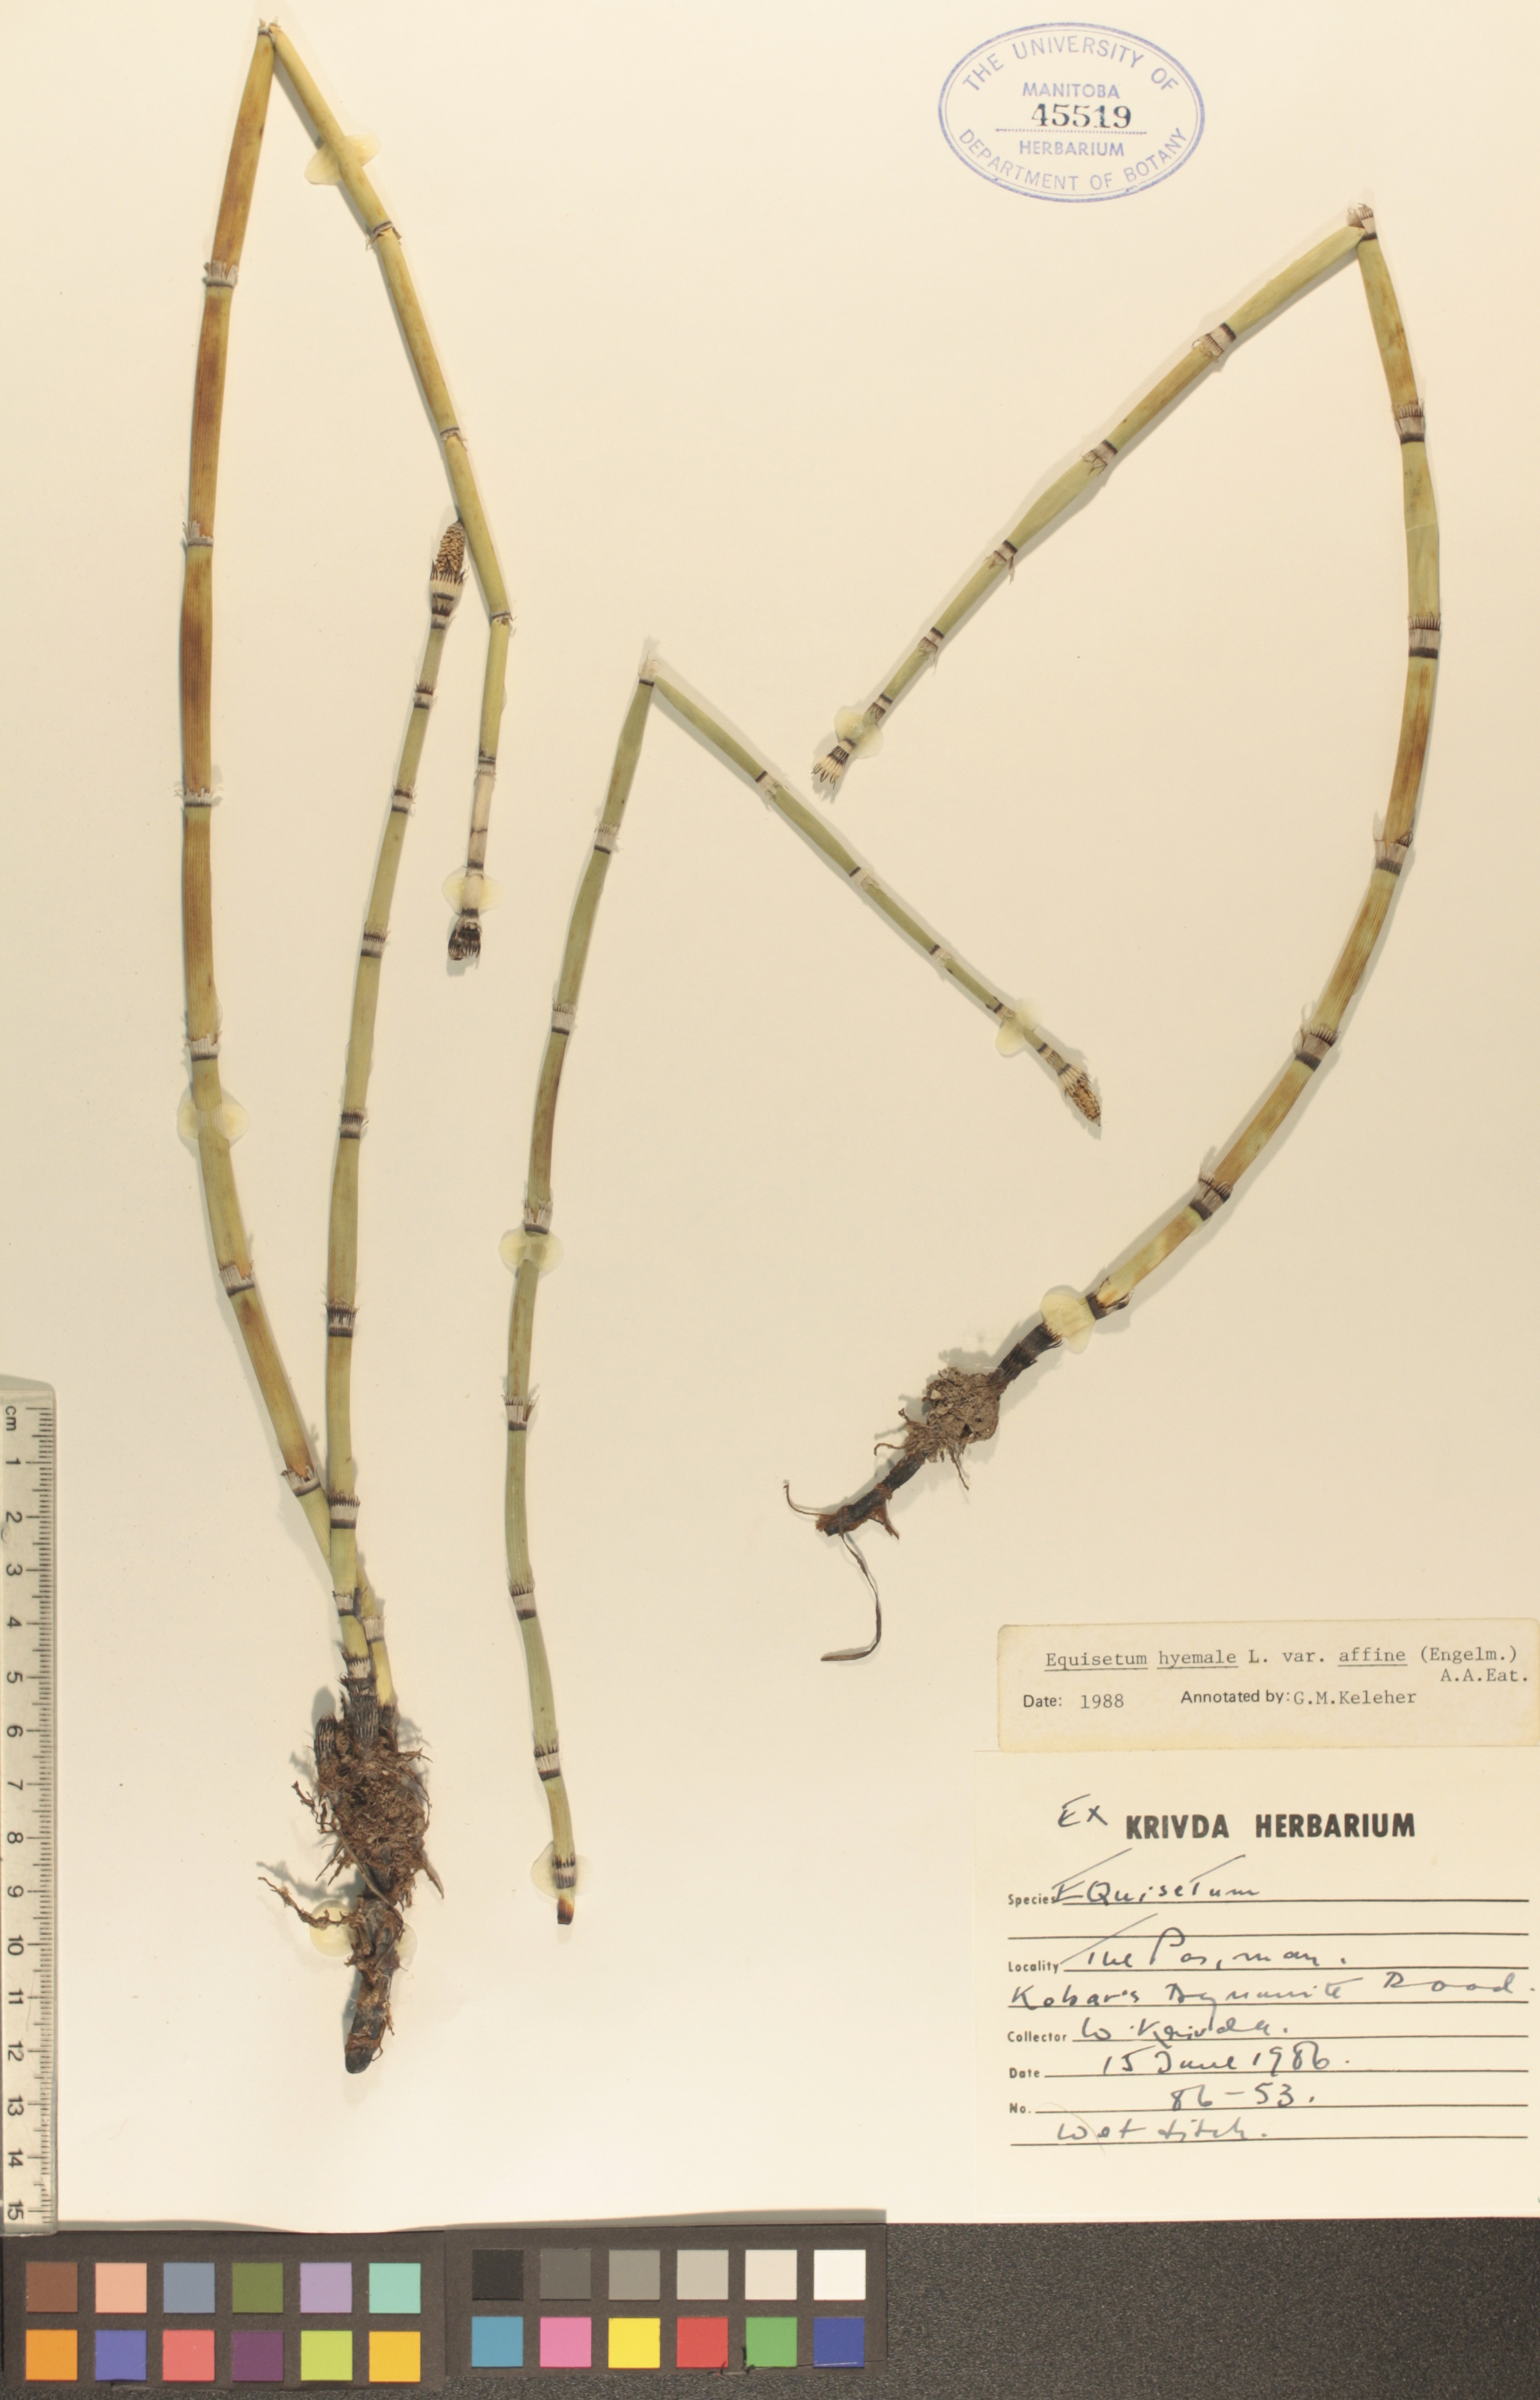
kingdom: Plantae
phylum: Tracheophyta
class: Polypodiopsida
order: Equisetales
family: Equisetaceae
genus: Equisetum
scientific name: Equisetum praealtum
